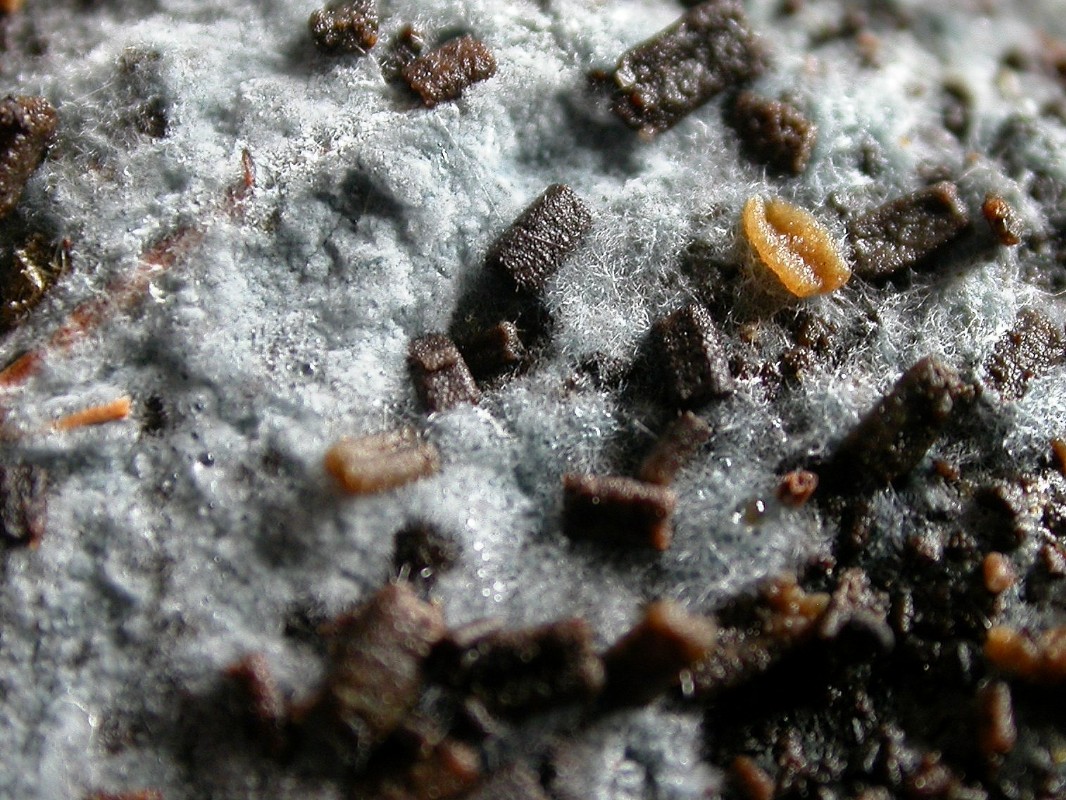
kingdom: Fungi
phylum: Basidiomycota
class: Agaricomycetes
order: Cantharellales
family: Botryobasidiaceae
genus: Botryobasidium
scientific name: Botryobasidium laeve
